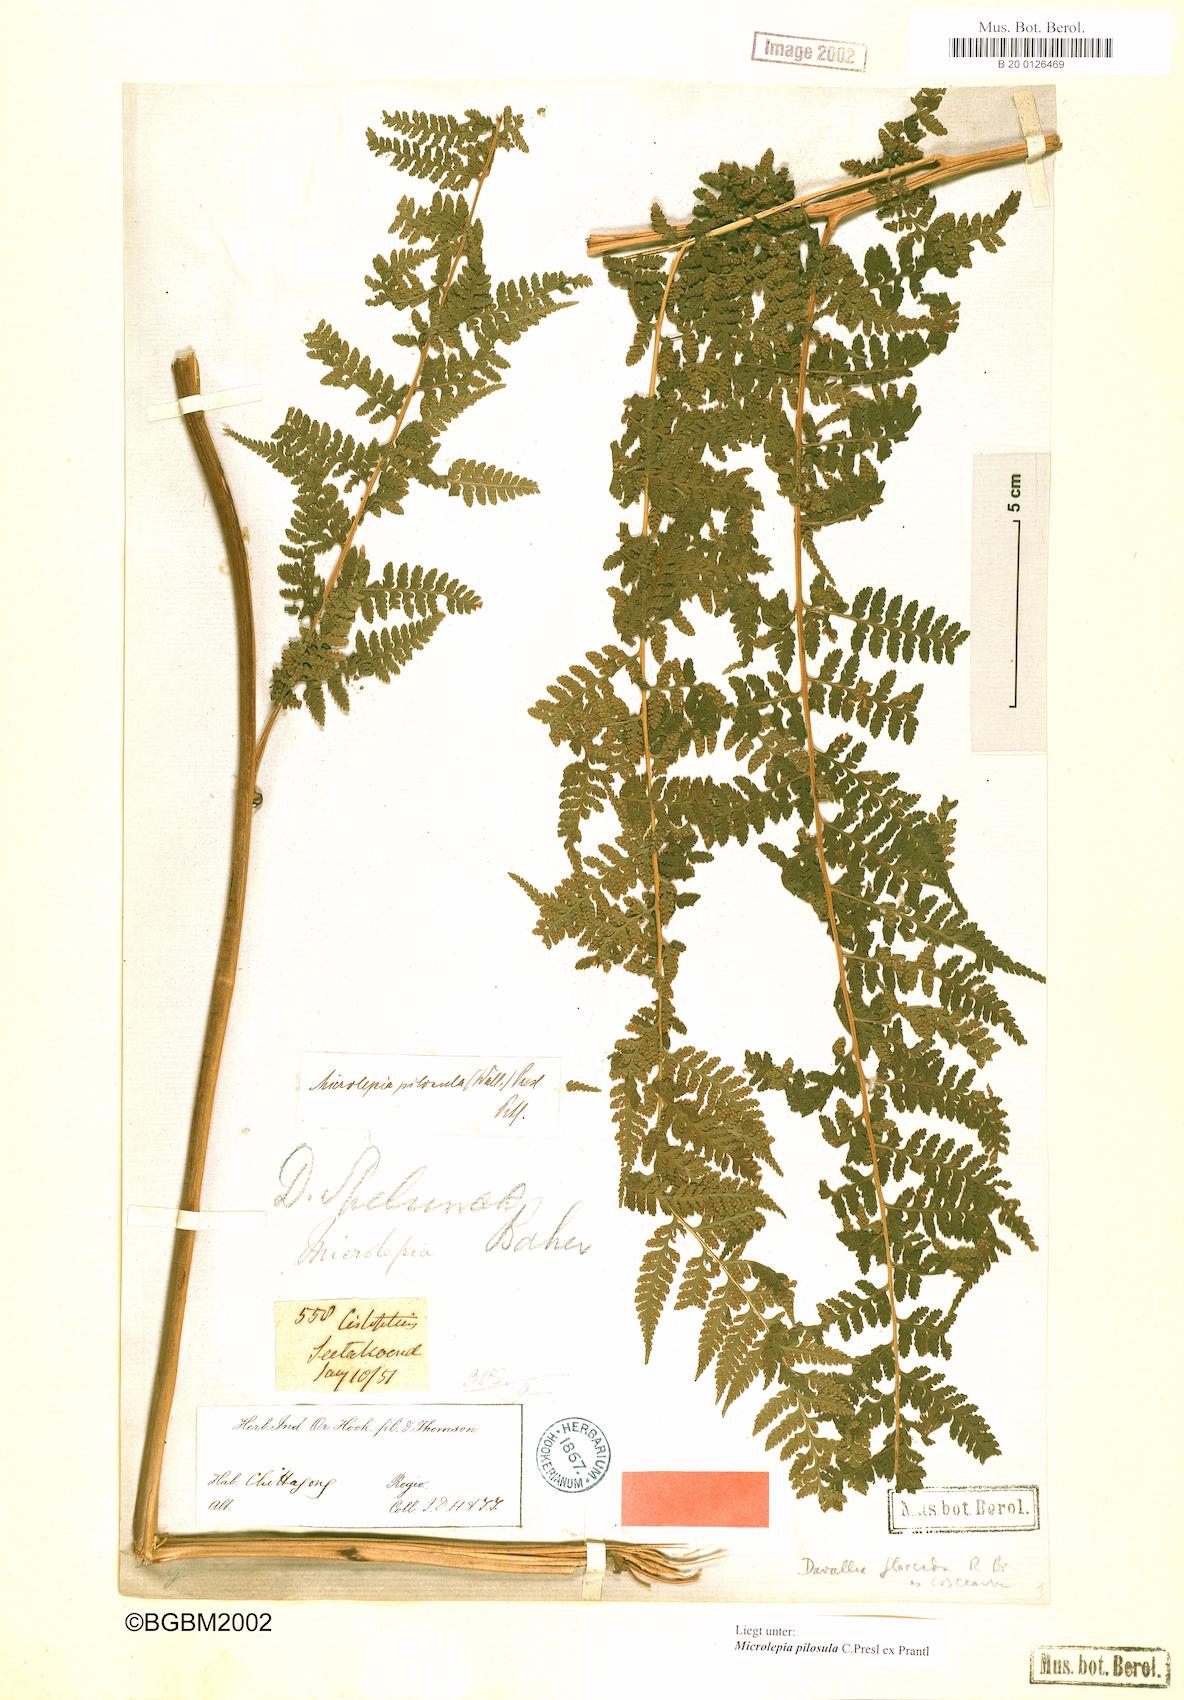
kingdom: Plantae
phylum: Tracheophyta
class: Polypodiopsida
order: Polypodiales
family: Dennstaedtiaceae
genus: Microlepia
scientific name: Microlepia speluncae
